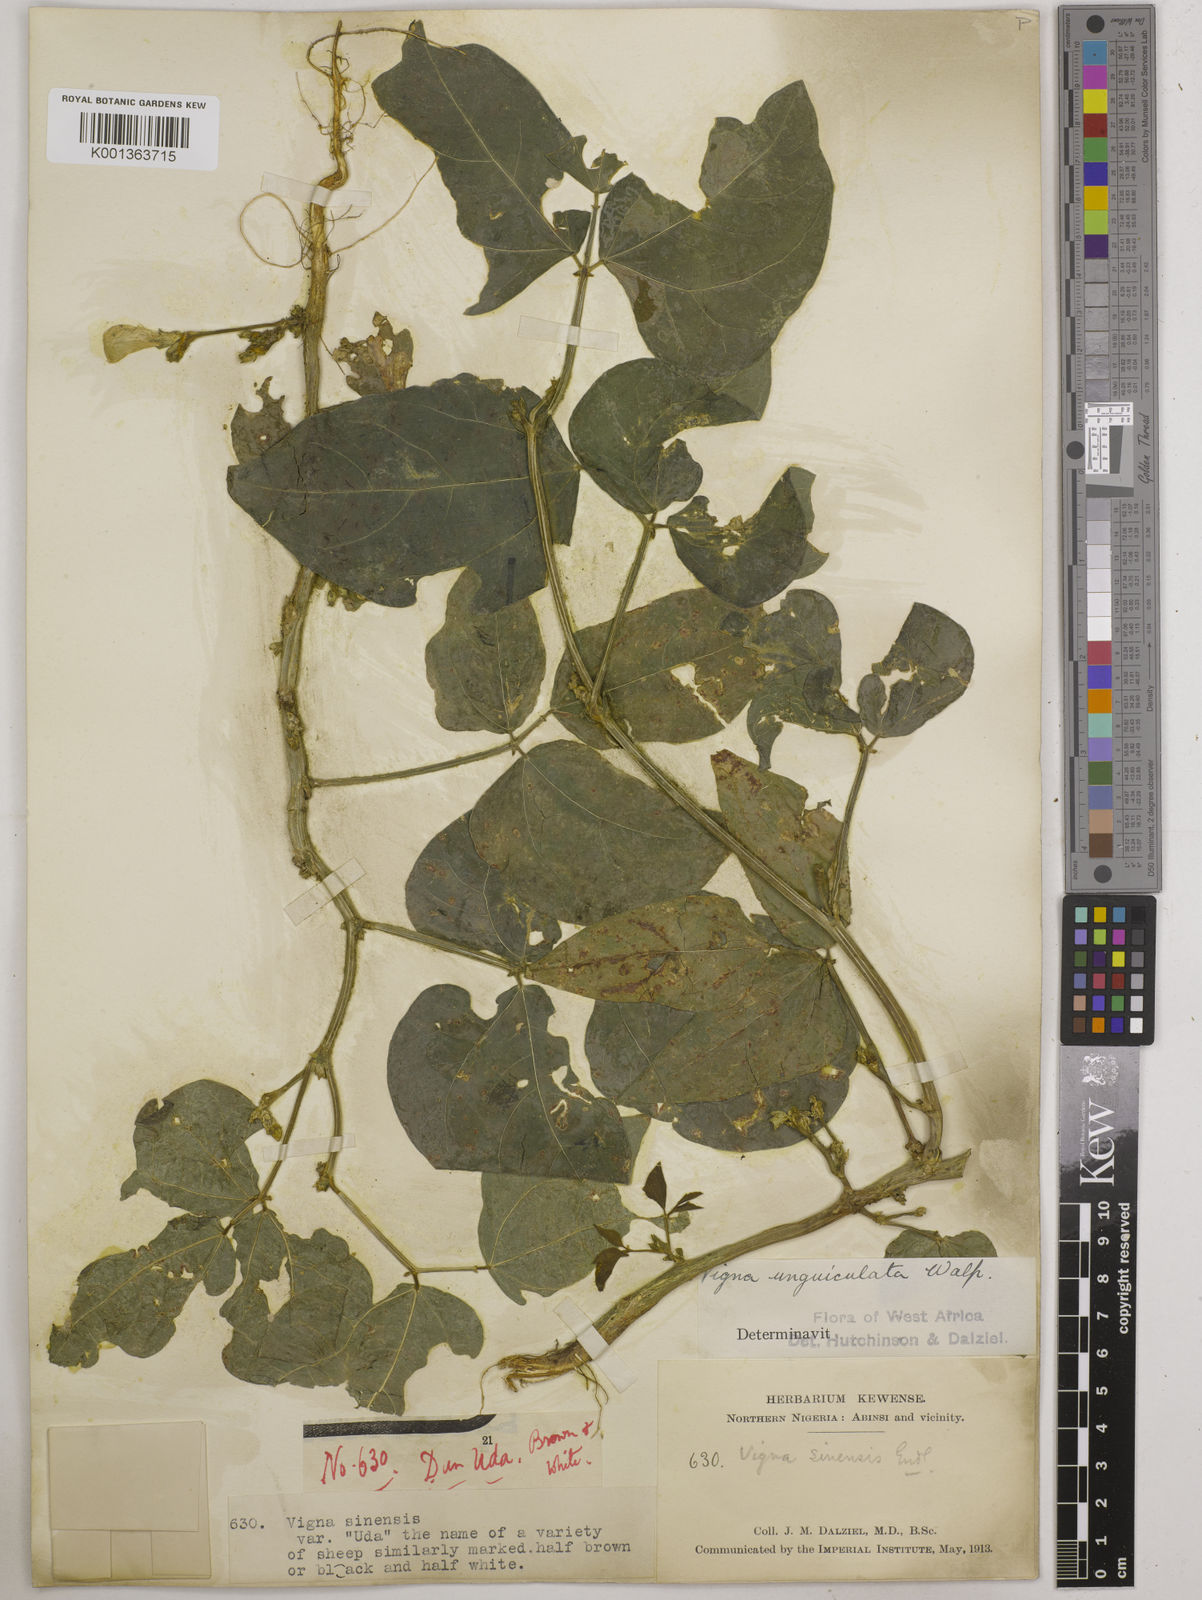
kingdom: Plantae
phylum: Tracheophyta
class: Magnoliopsida
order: Fabales
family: Fabaceae
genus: Vigna
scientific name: Vigna unguiculata
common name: Cowpea
